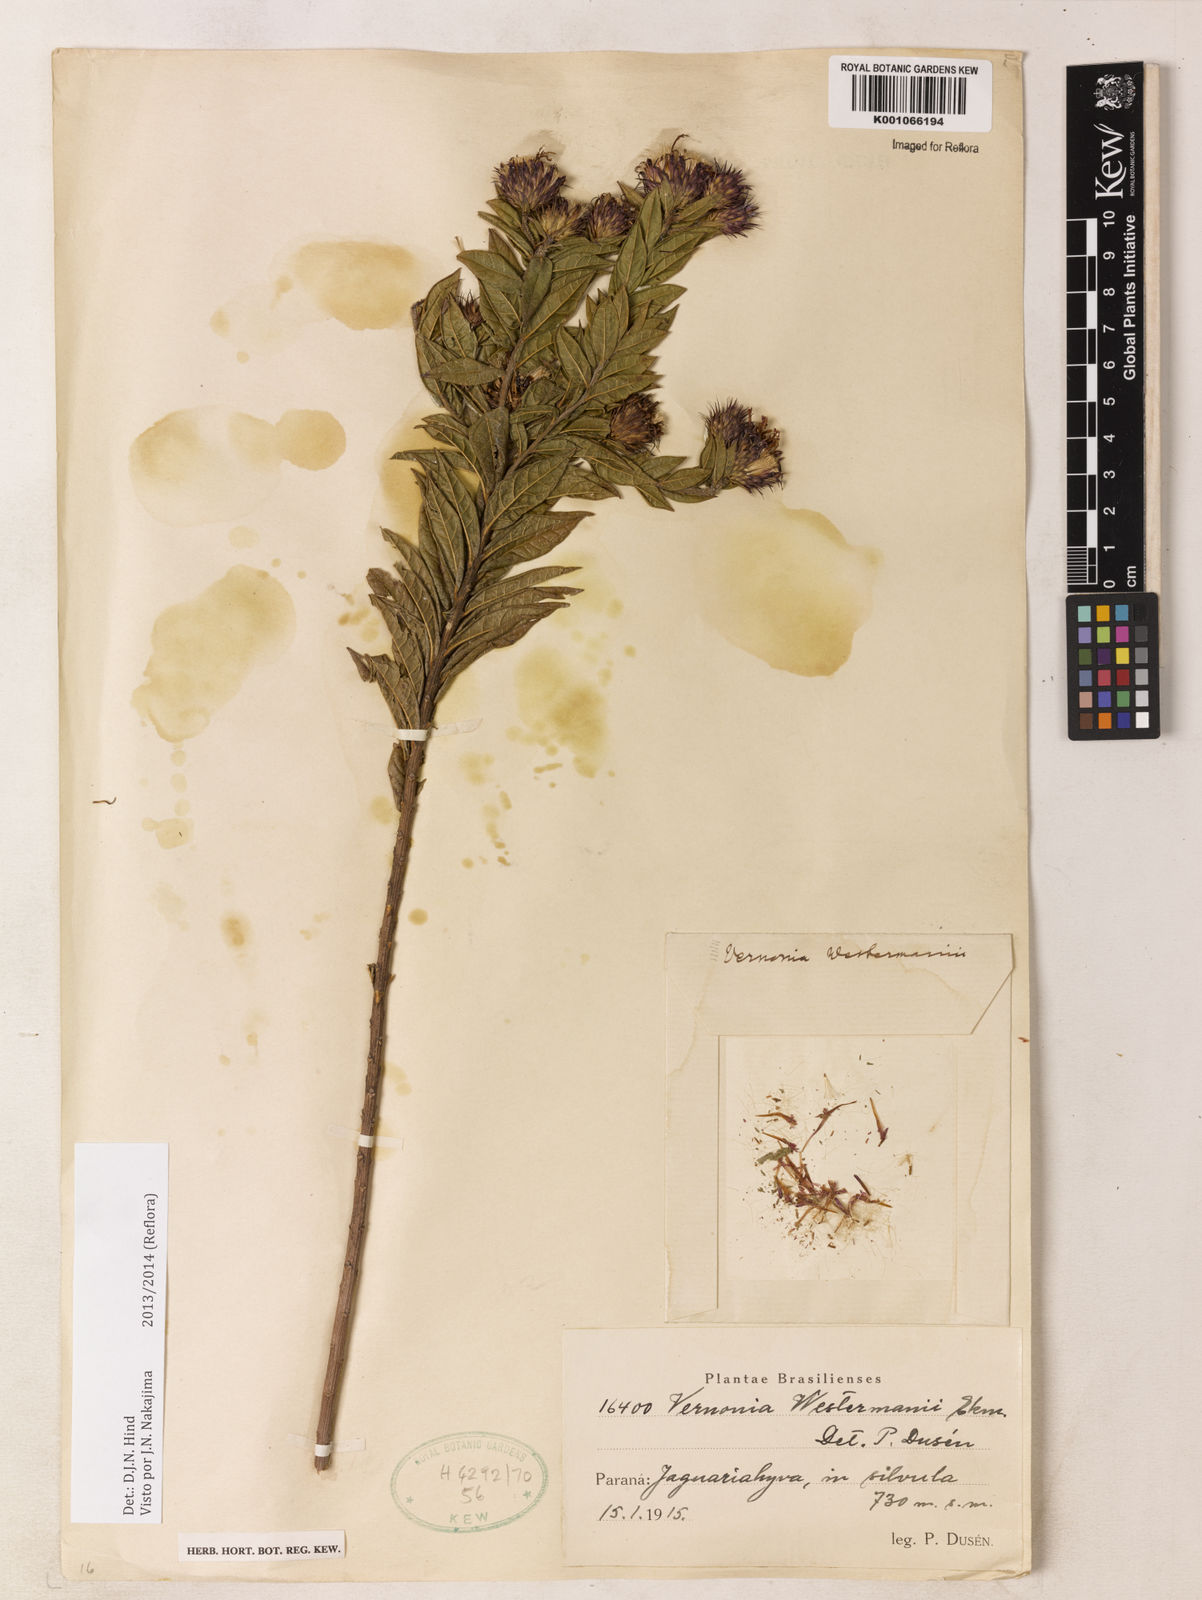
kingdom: Plantae
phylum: Tracheophyta
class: Magnoliopsida
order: Asterales
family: Asteraceae
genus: Vernonia
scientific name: Vernonia
